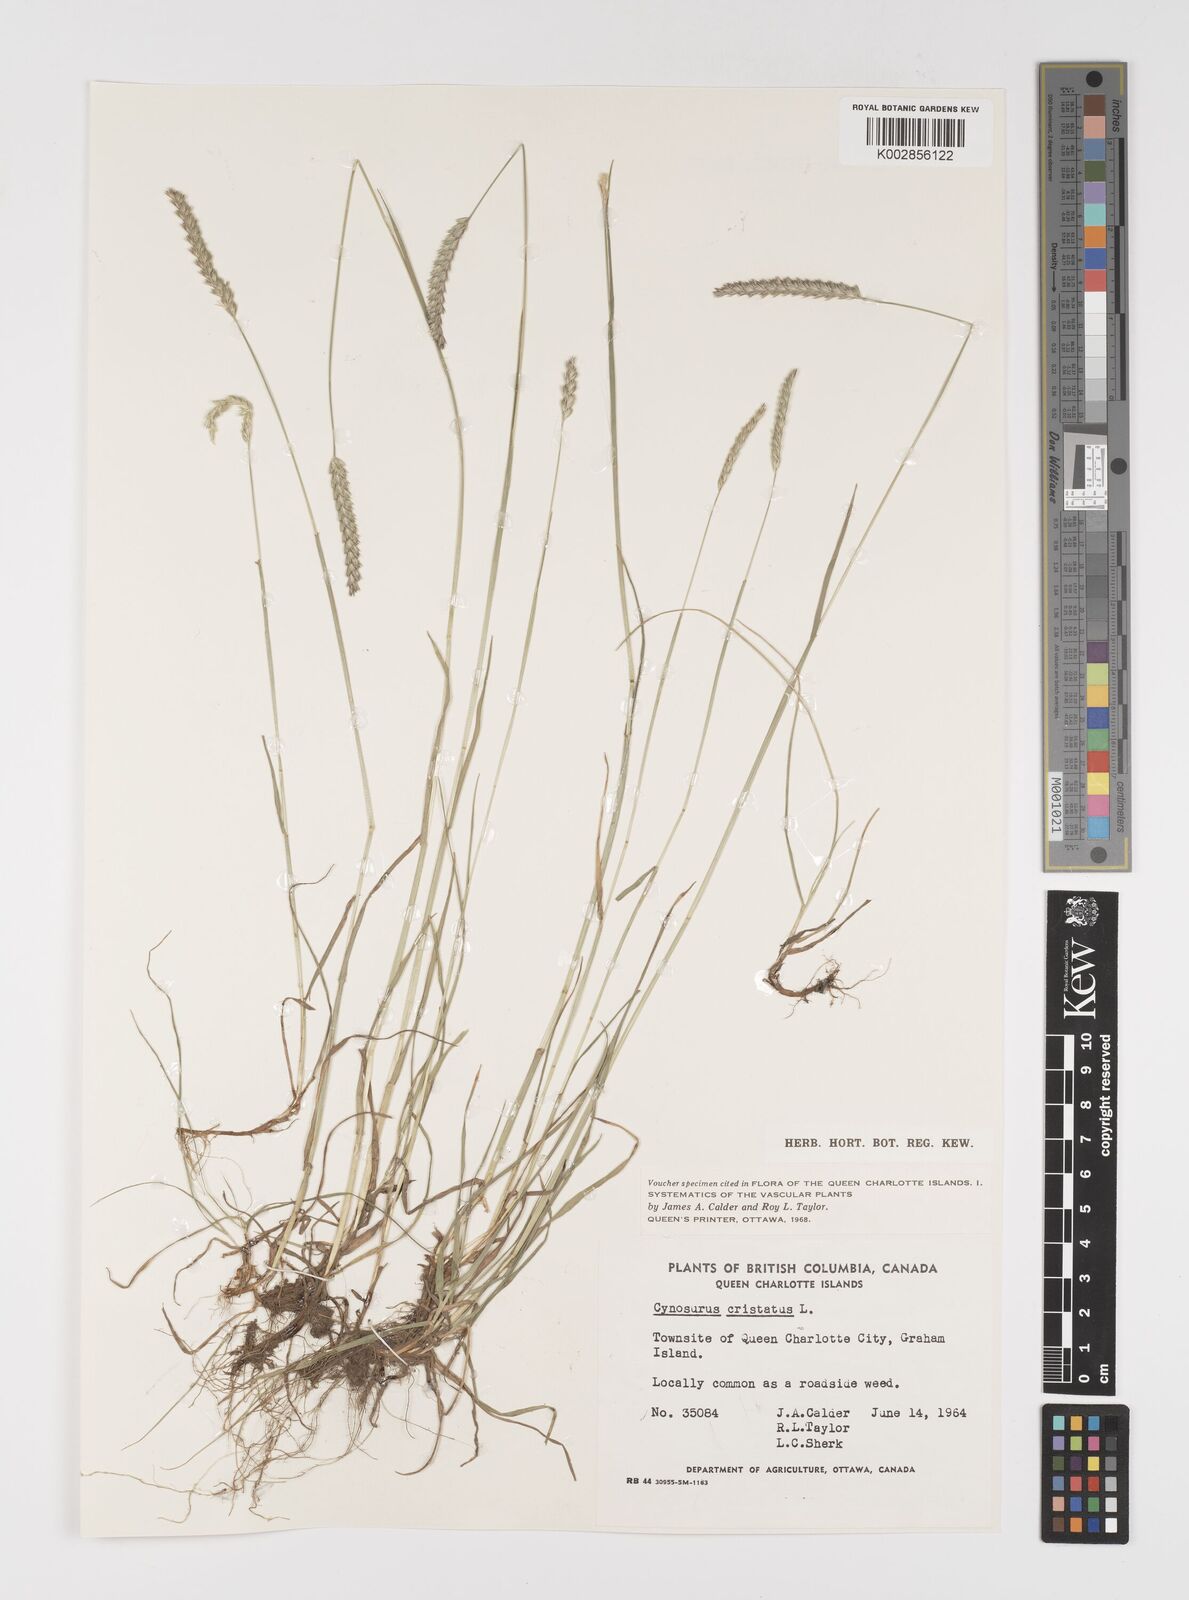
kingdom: Plantae
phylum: Tracheophyta
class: Liliopsida
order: Poales
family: Poaceae
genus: Cynosurus
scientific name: Cynosurus cristatus
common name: Crested dog's-tail
